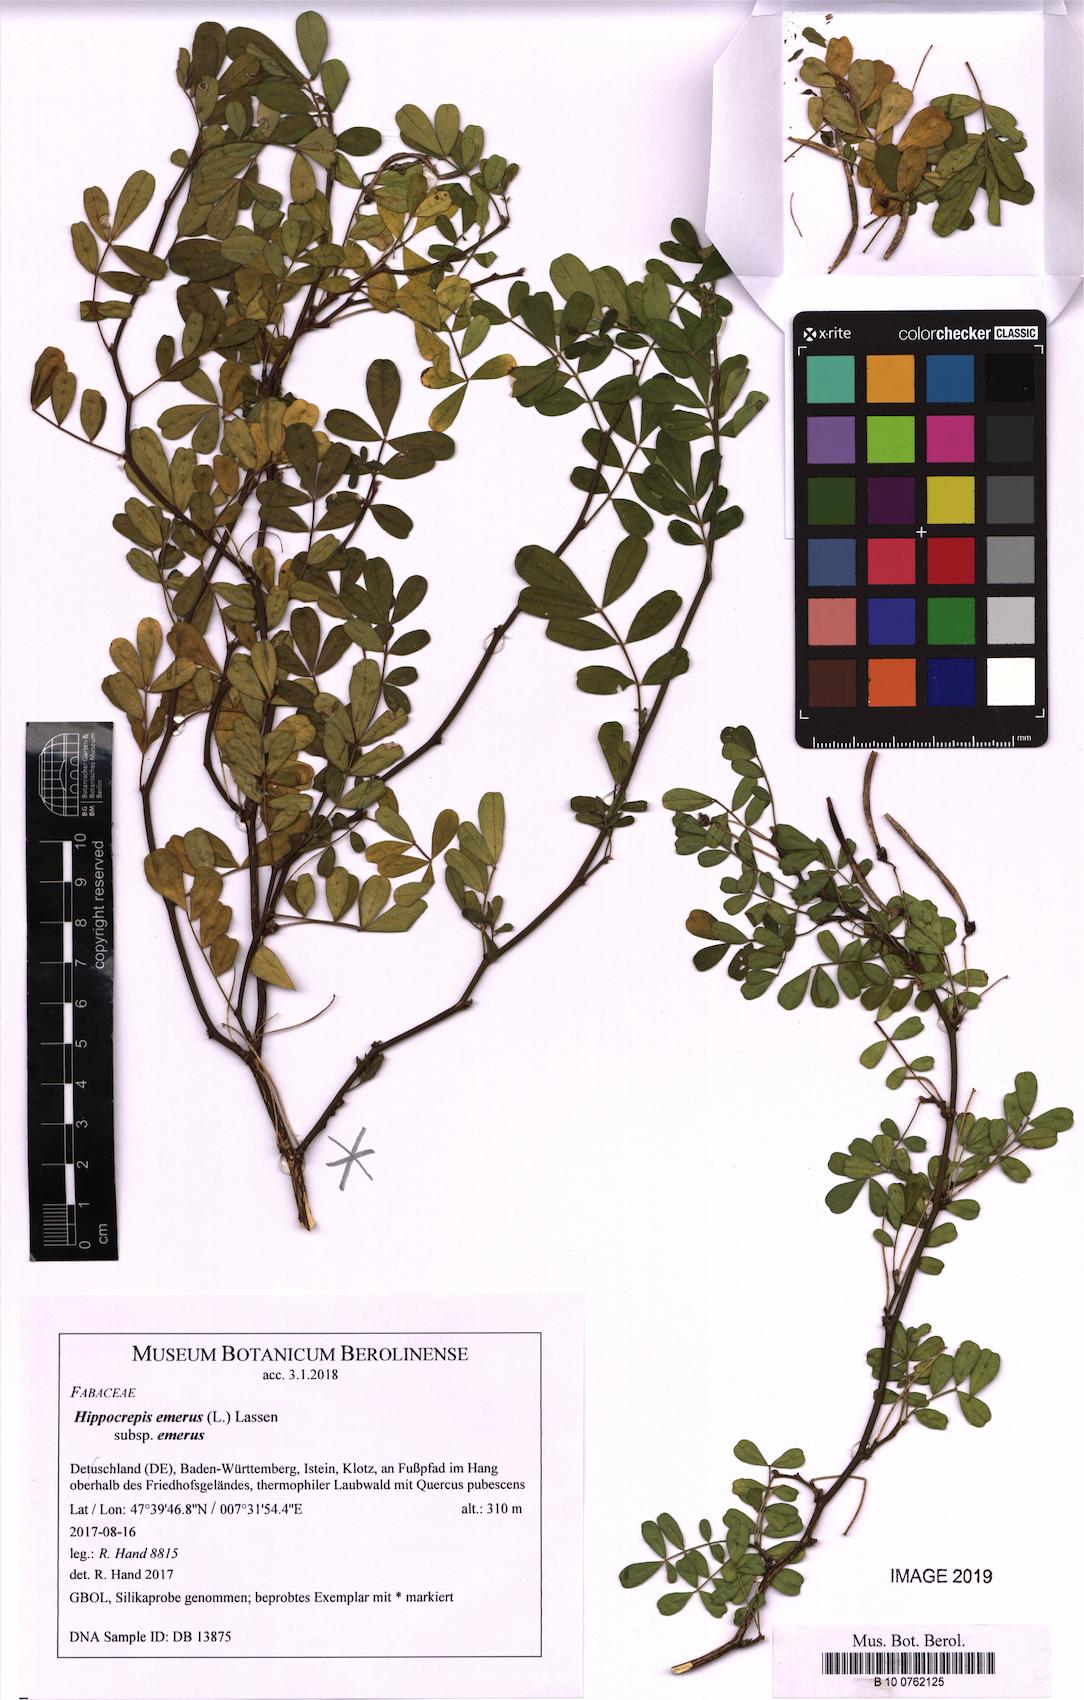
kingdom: Plantae
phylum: Tracheophyta
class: Magnoliopsida
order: Fabales
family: Fabaceae
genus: Hippocrepis
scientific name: Hippocrepis emerus
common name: Scorpion senna
